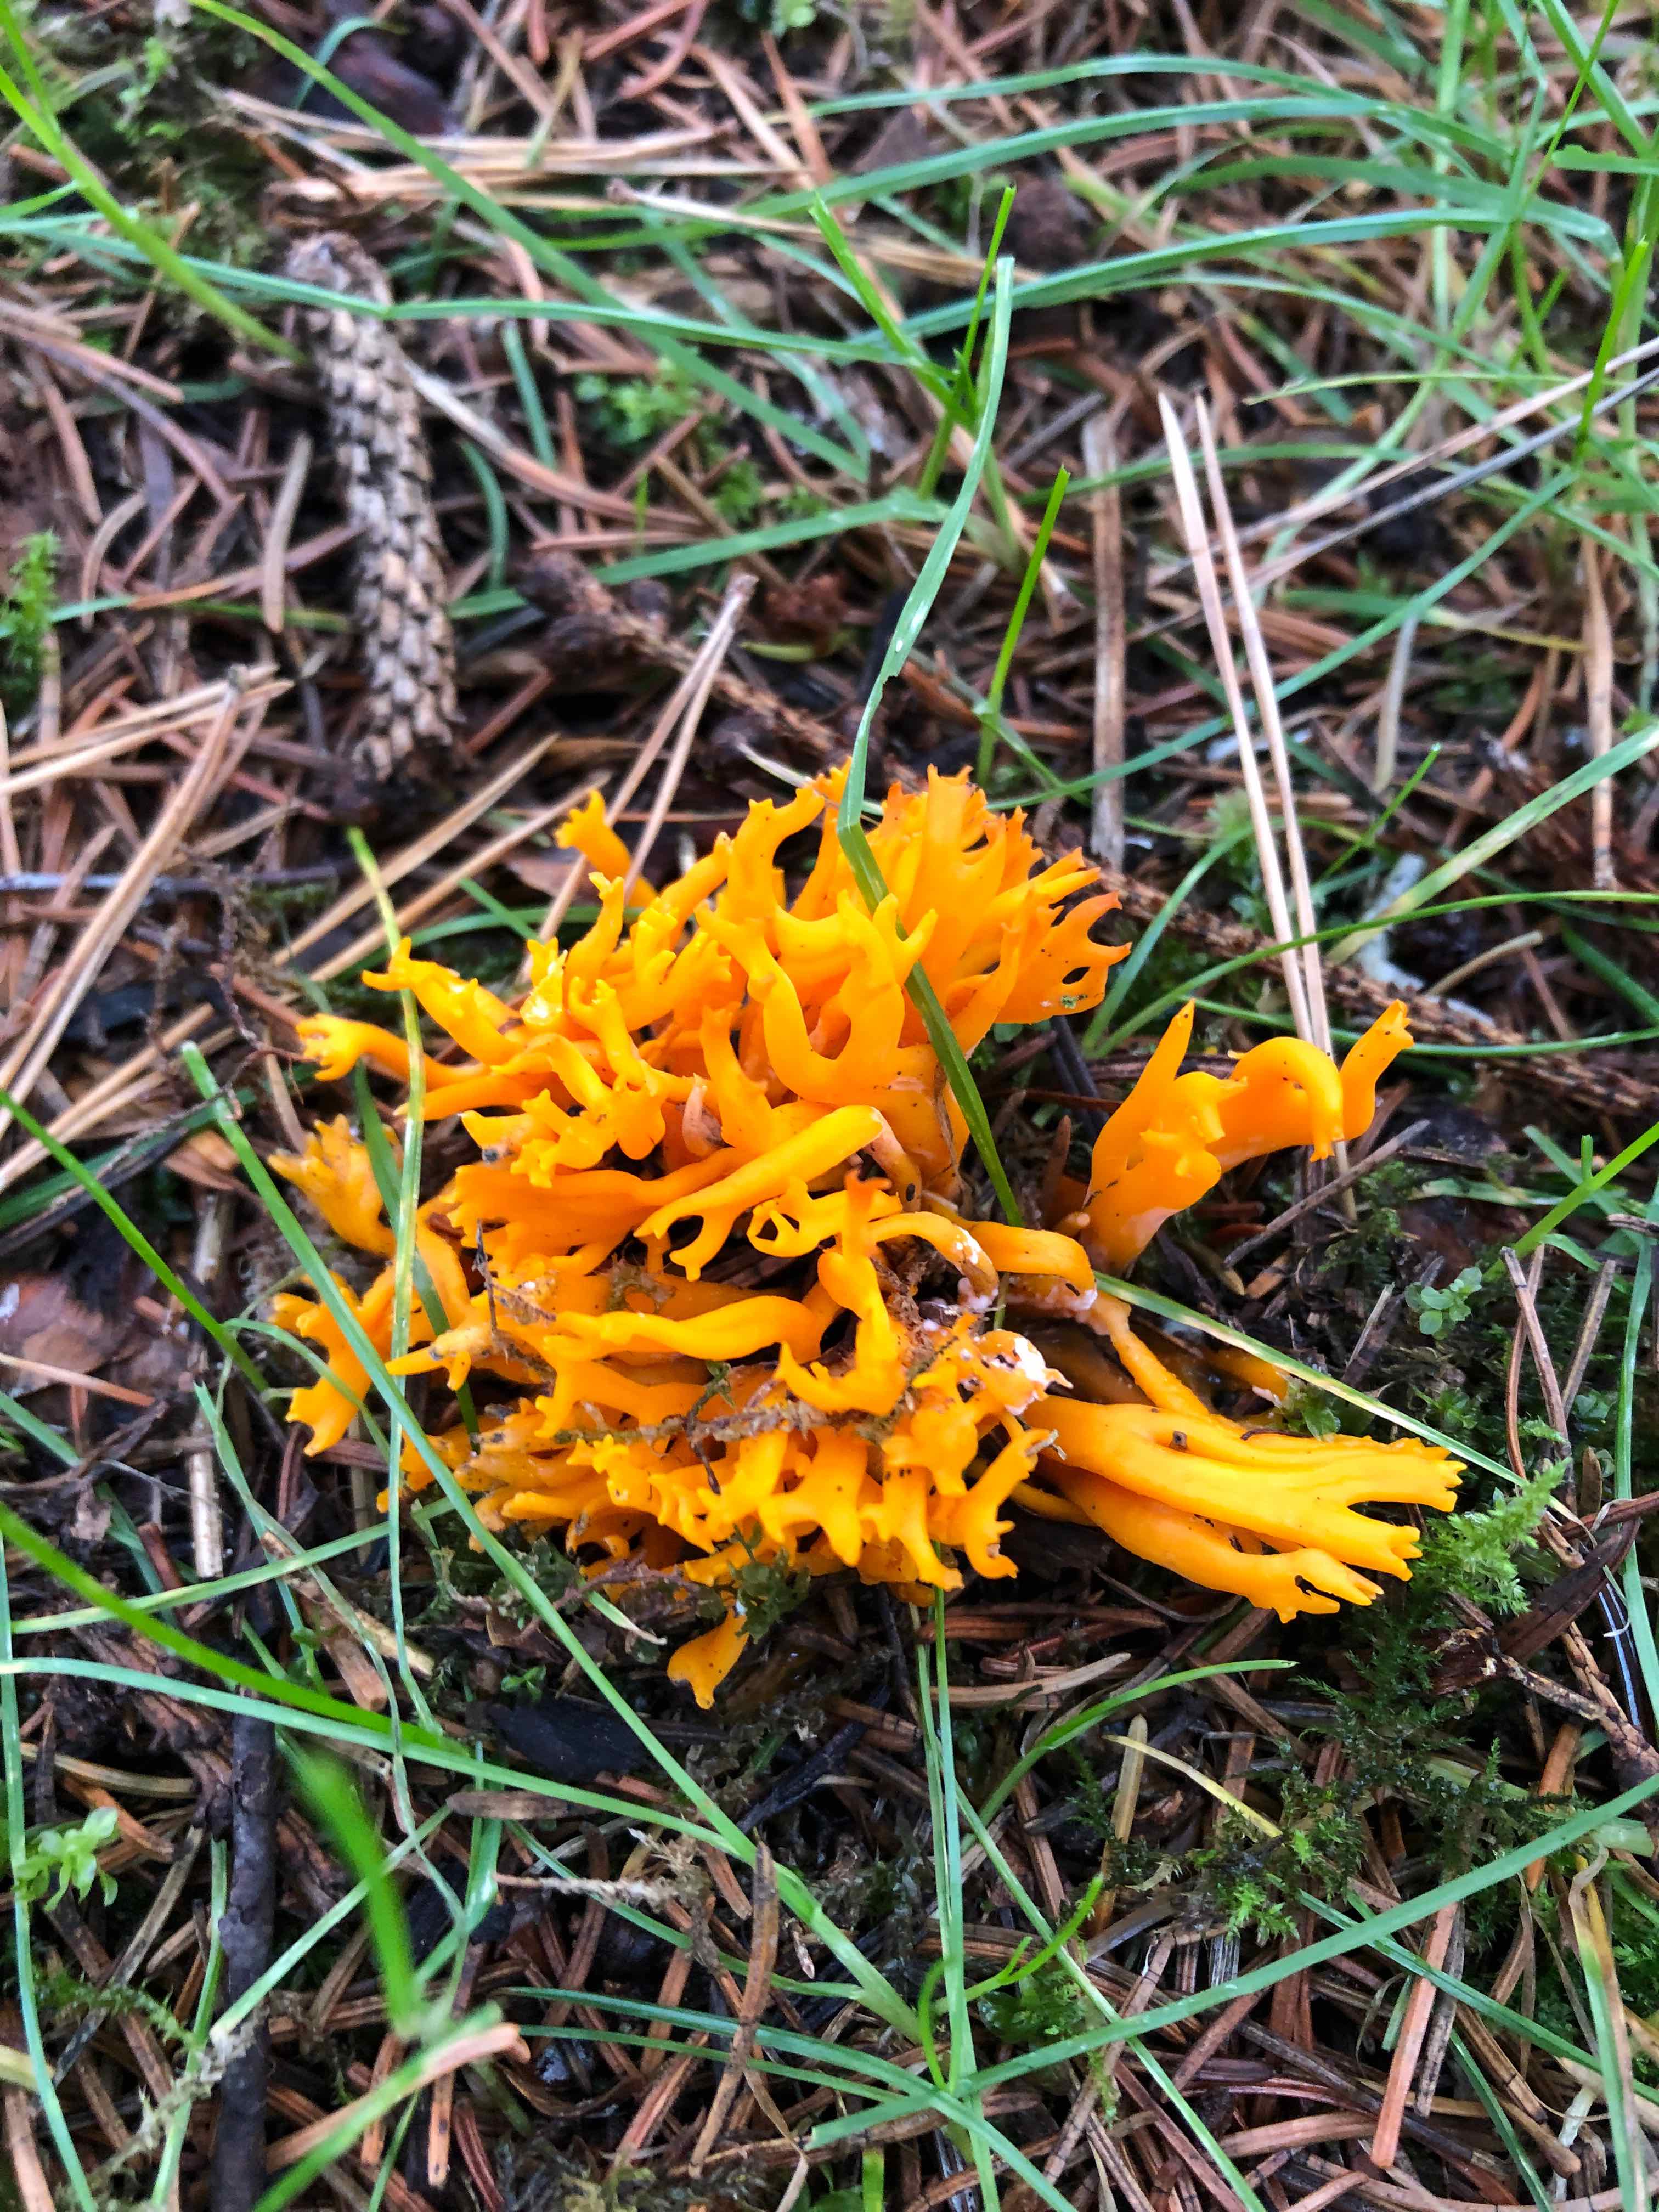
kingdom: Fungi
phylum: Basidiomycota
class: Dacrymycetes
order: Dacrymycetales
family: Dacrymycetaceae
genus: Calocera
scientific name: Calocera viscosa
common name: almindelig guldgaffel
